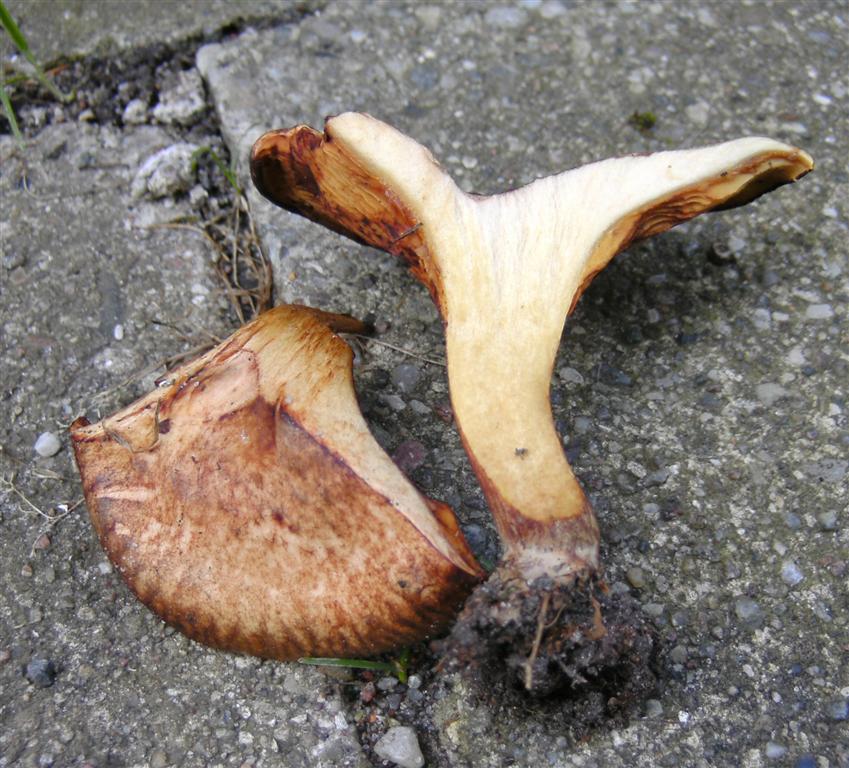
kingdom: Fungi
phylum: Basidiomycota
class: Agaricomycetes
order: Boletales
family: Paxillaceae
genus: Paxillus
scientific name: Paxillus rubicundulus
